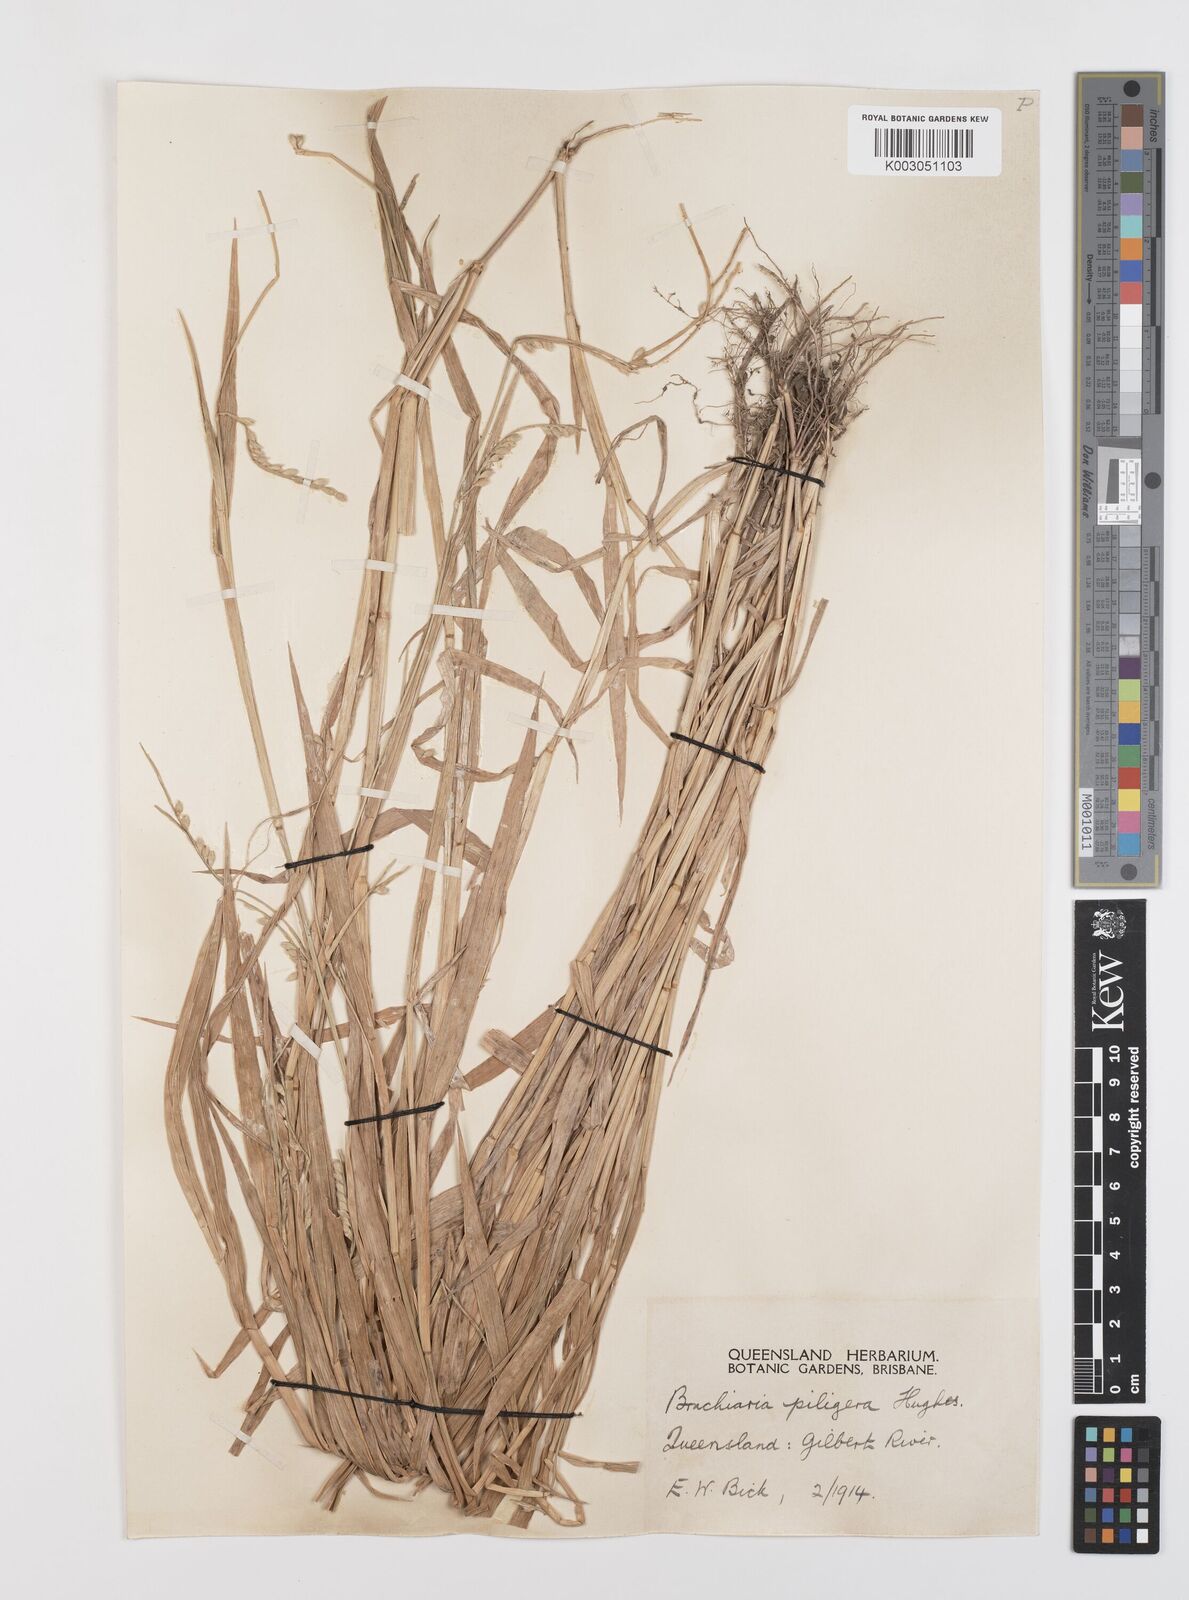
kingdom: Plantae
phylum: Tracheophyta
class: Liliopsida
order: Poales
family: Poaceae
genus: Urochloa
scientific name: Urochloa piligera
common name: Wattle signalgrass
